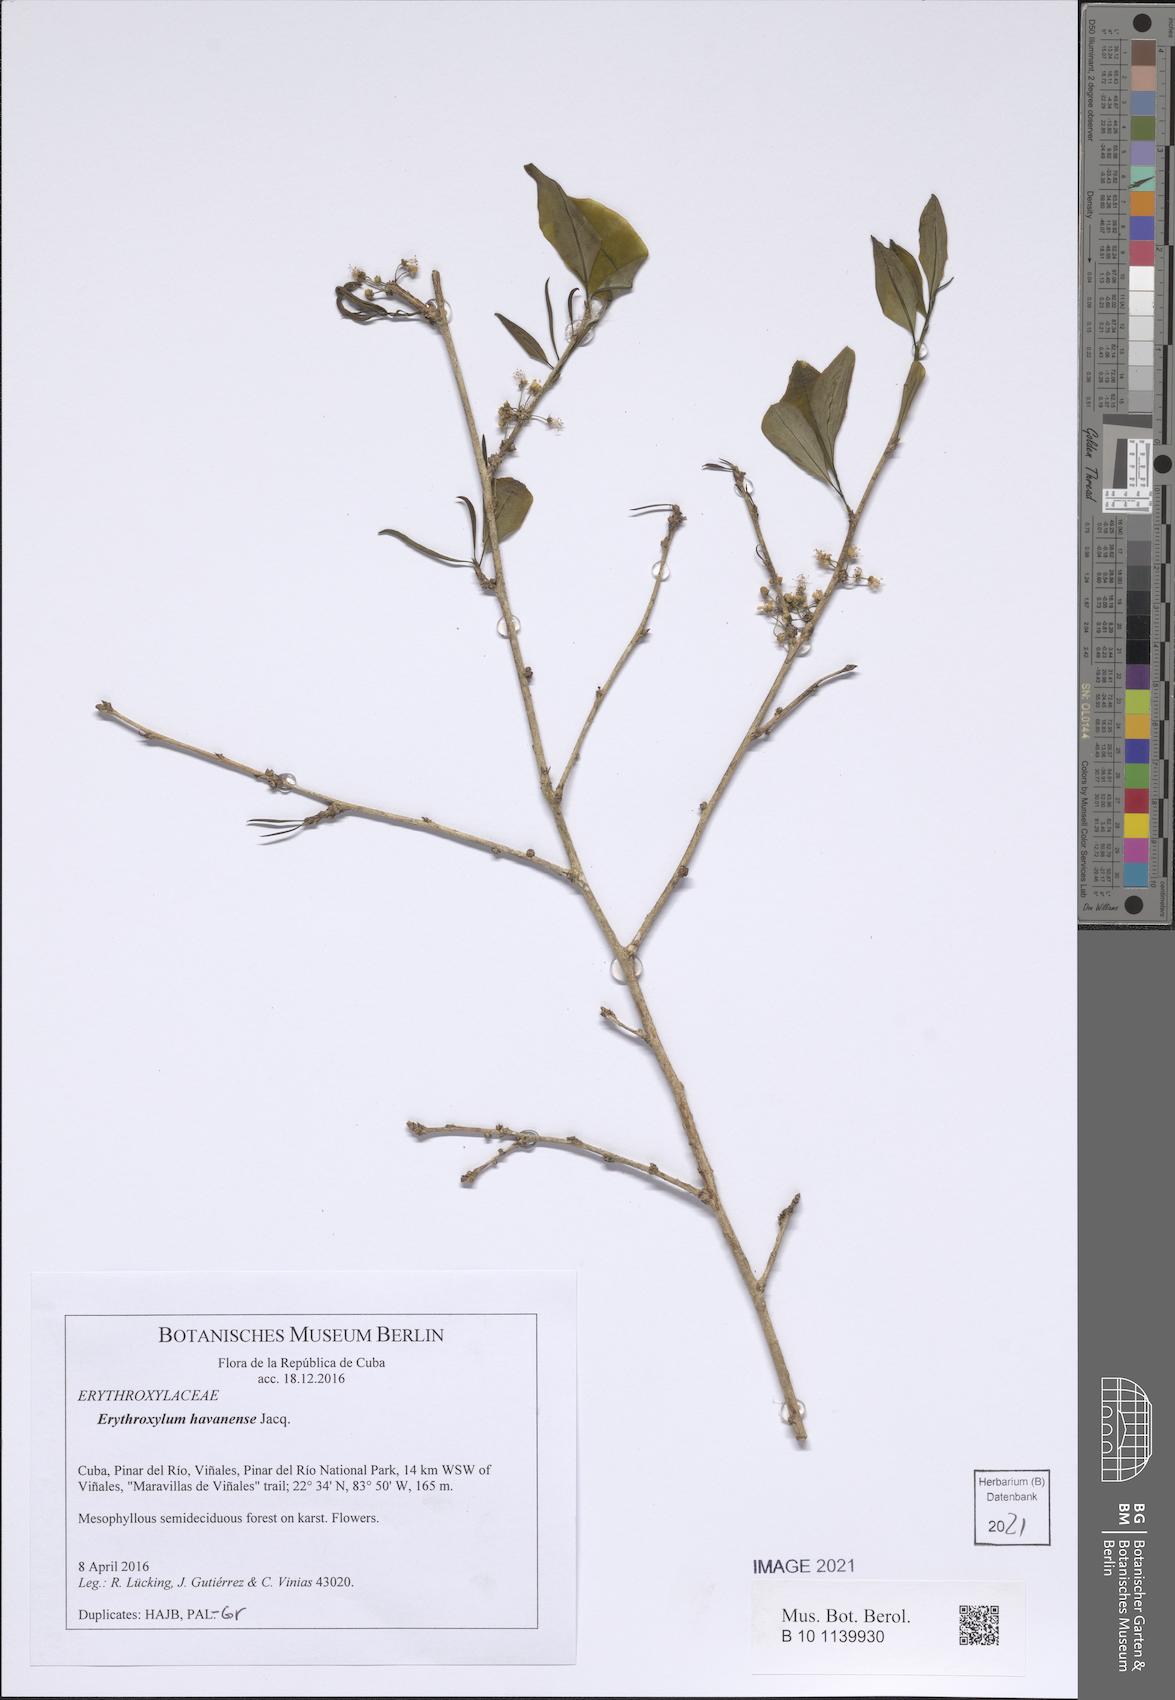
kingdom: Plantae
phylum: Tracheophyta
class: Magnoliopsida
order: Malpighiales
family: Erythroxylaceae
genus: Erythroxylum
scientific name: Erythroxylum havanense
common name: Bracelet
